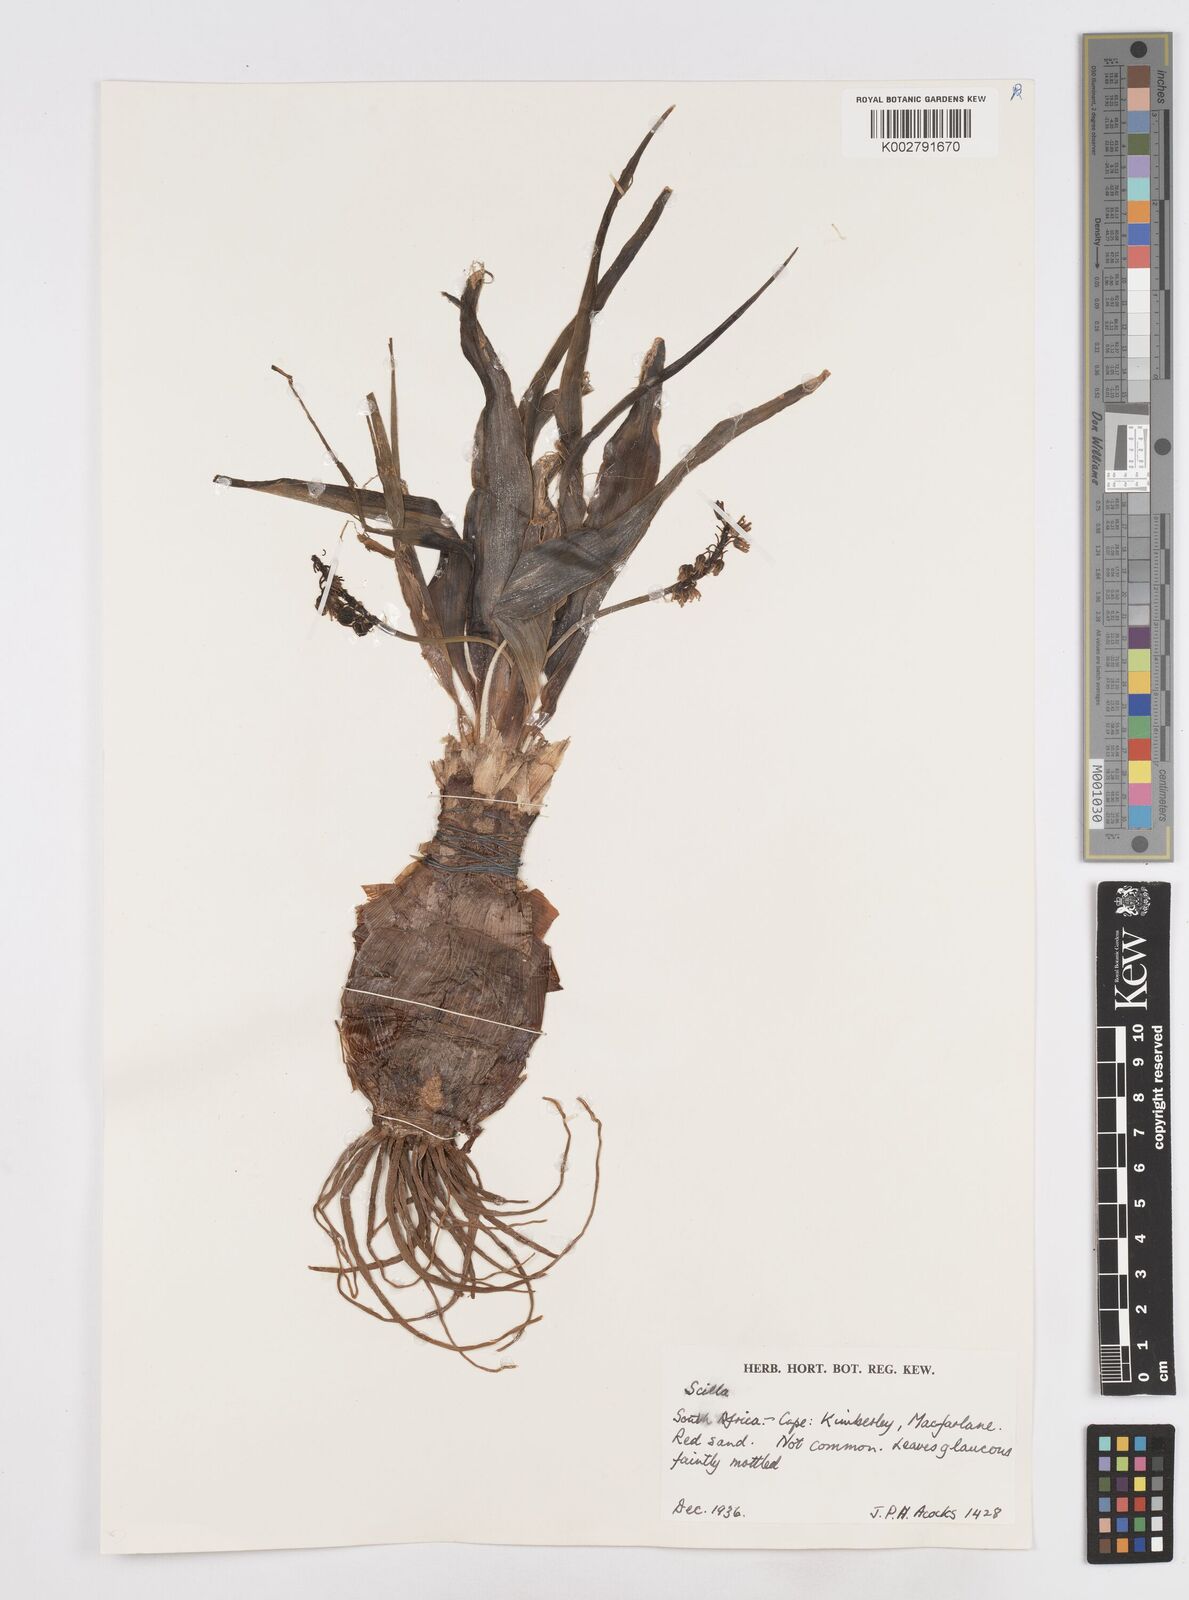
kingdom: Plantae
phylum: Tracheophyta
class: Liliopsida
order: Asparagales
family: Asparagaceae
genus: Scilla
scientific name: Scilla
